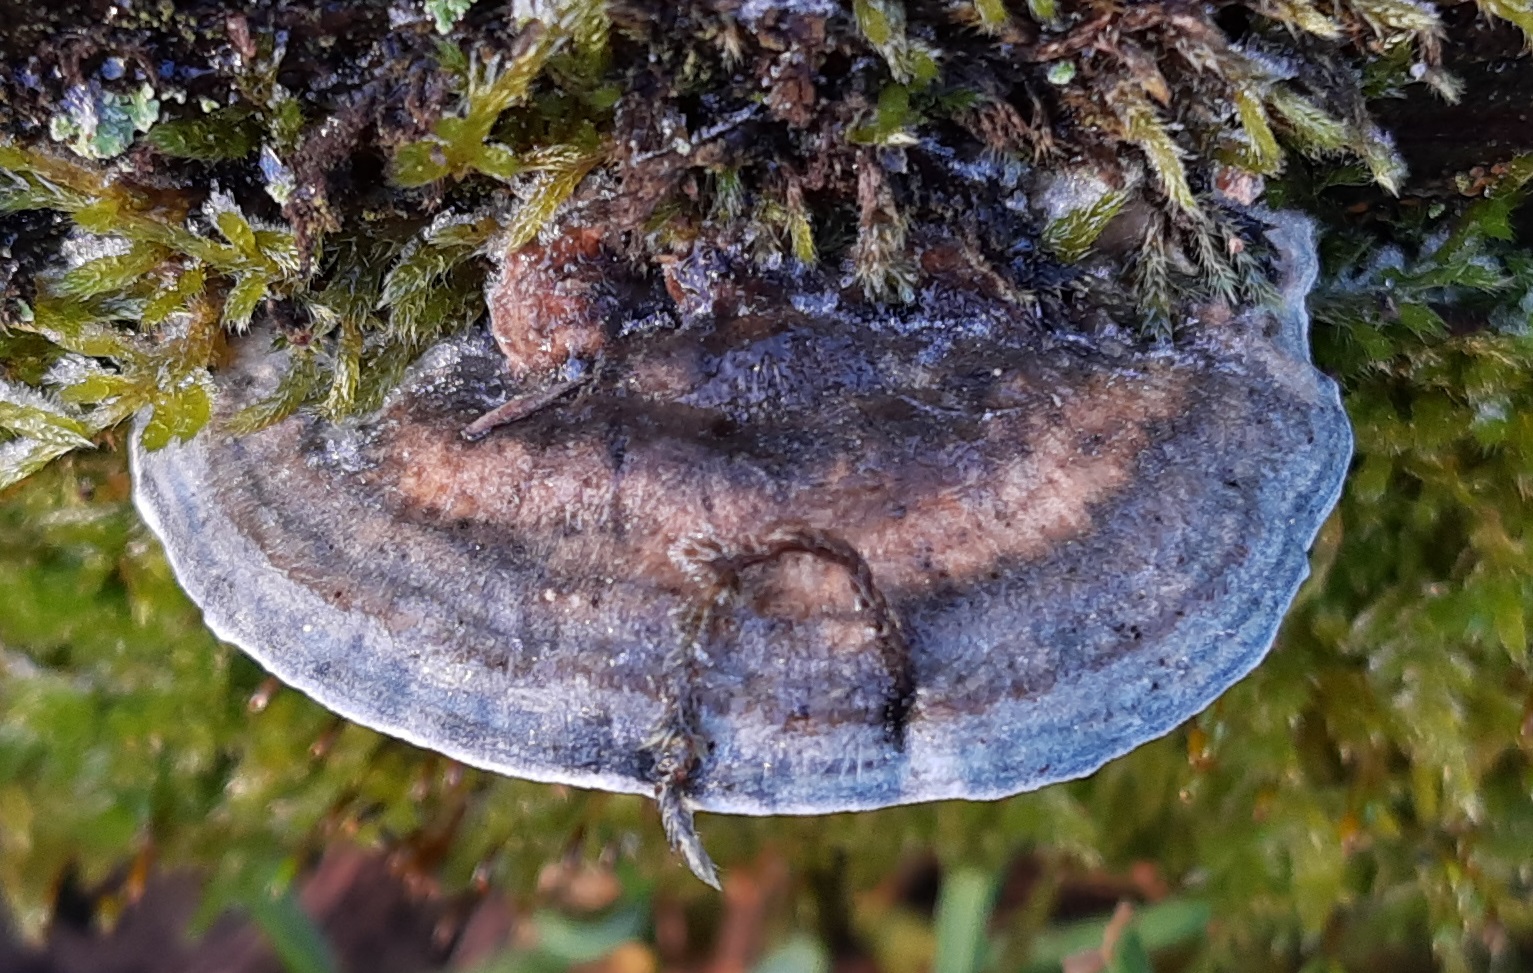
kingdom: Fungi
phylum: Basidiomycota
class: Agaricomycetes
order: Polyporales
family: Polyporaceae
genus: Cyanosporus
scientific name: Cyanosporus caesius
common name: blålig kødporesvamp
